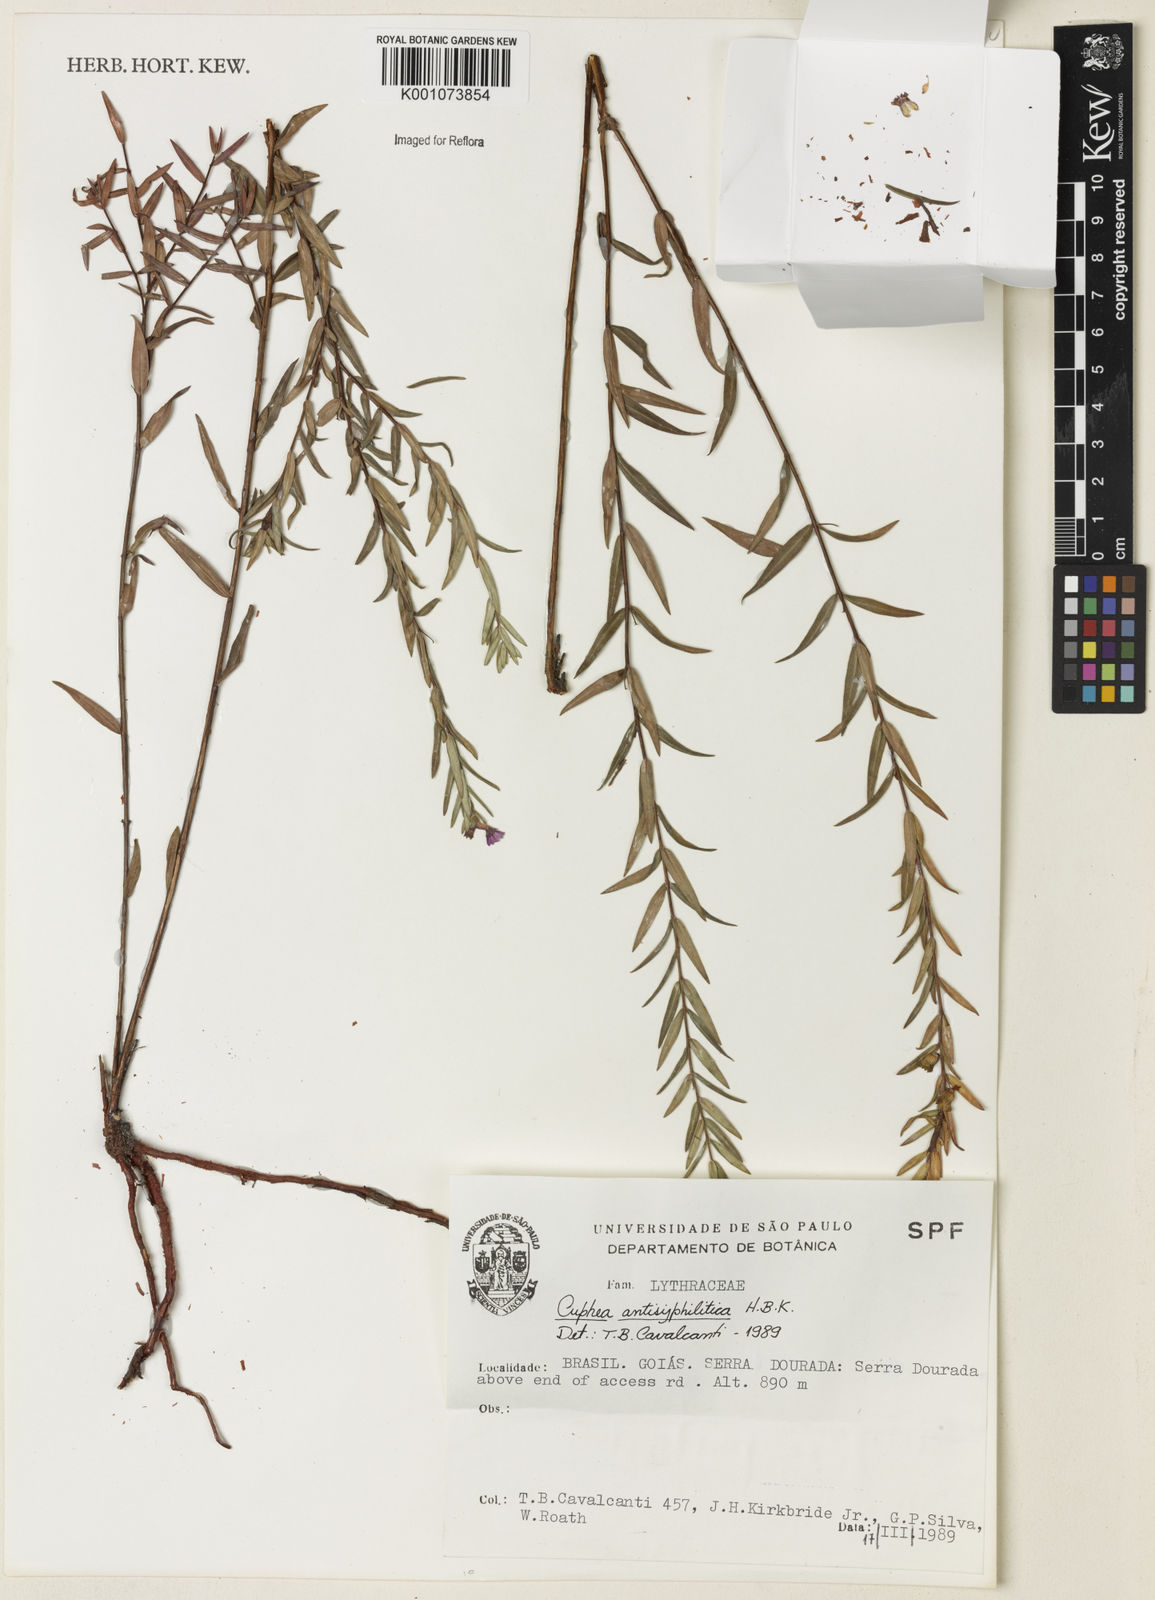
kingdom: Plantae
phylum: Tracheophyta
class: Magnoliopsida
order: Myrtales
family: Lythraceae
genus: Cuphea
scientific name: Cuphea antisyphilitica
